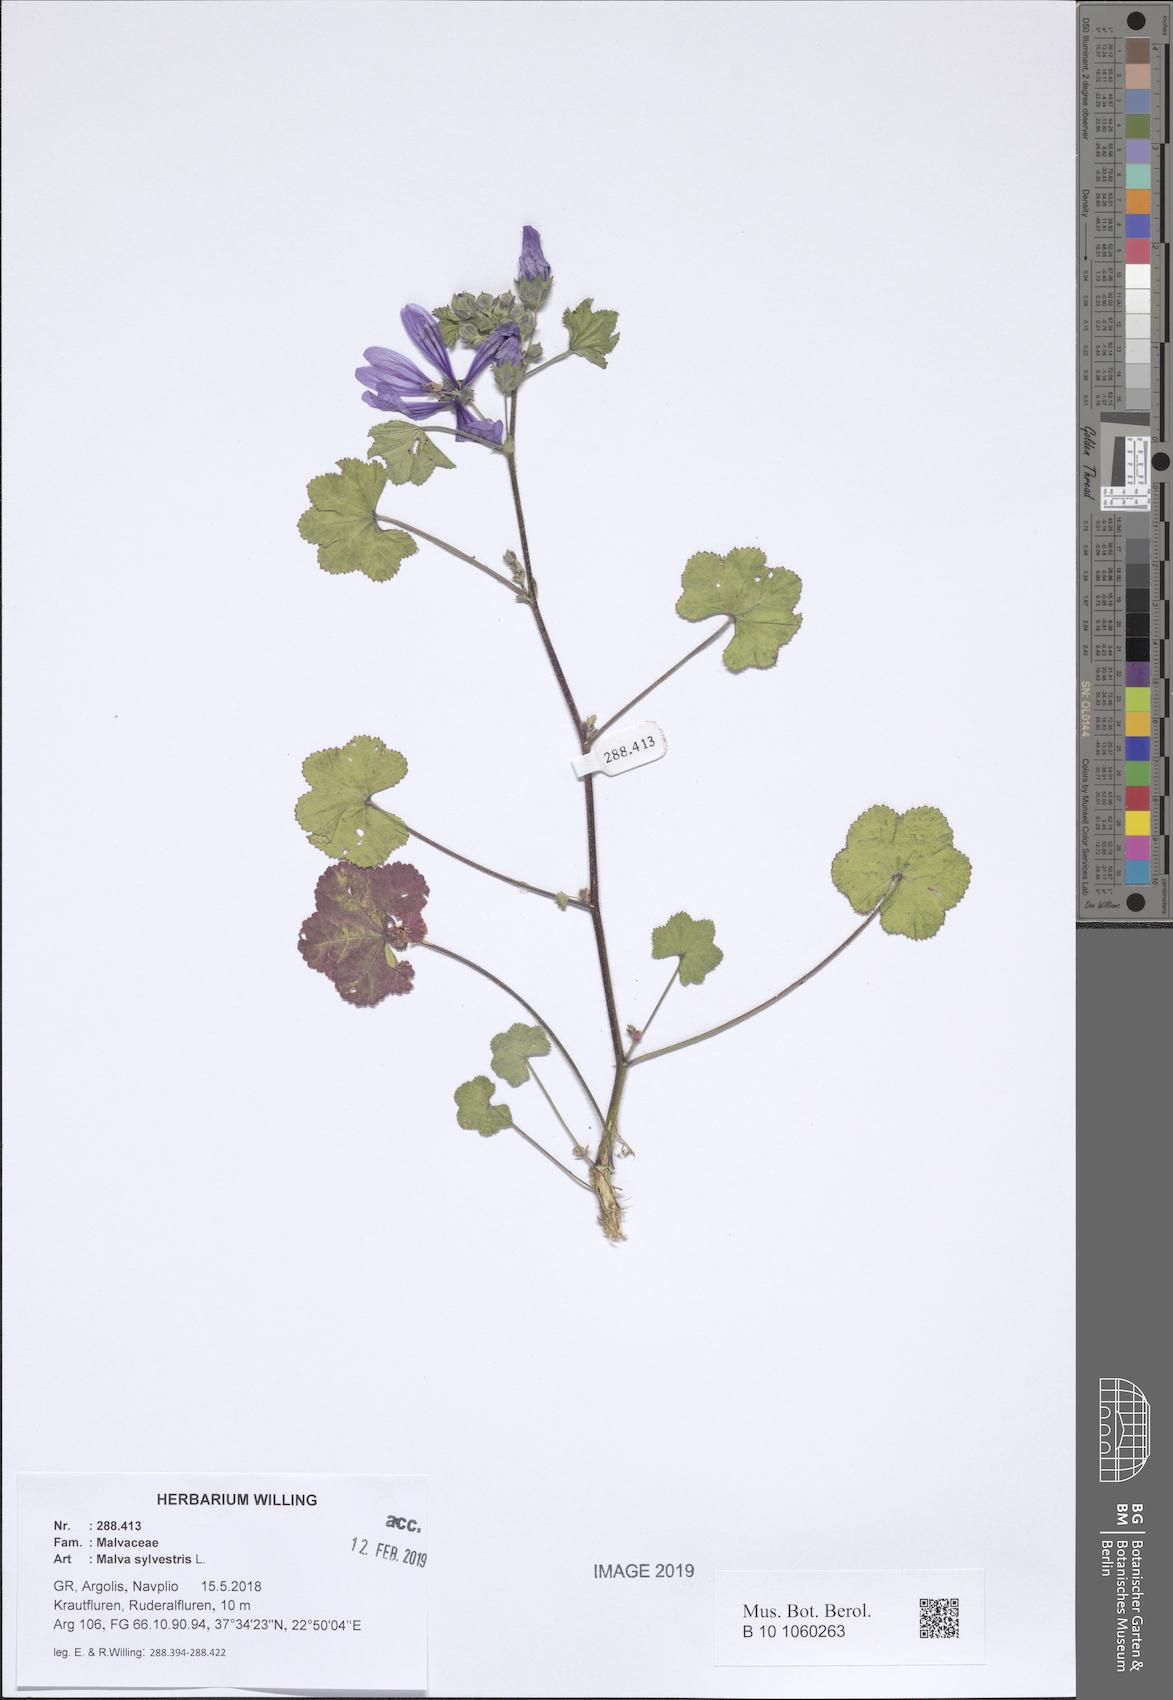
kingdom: Plantae
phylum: Tracheophyta
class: Magnoliopsida
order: Malvales
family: Malvaceae
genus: Malva
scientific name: Malva sylvestris
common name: Common mallow
